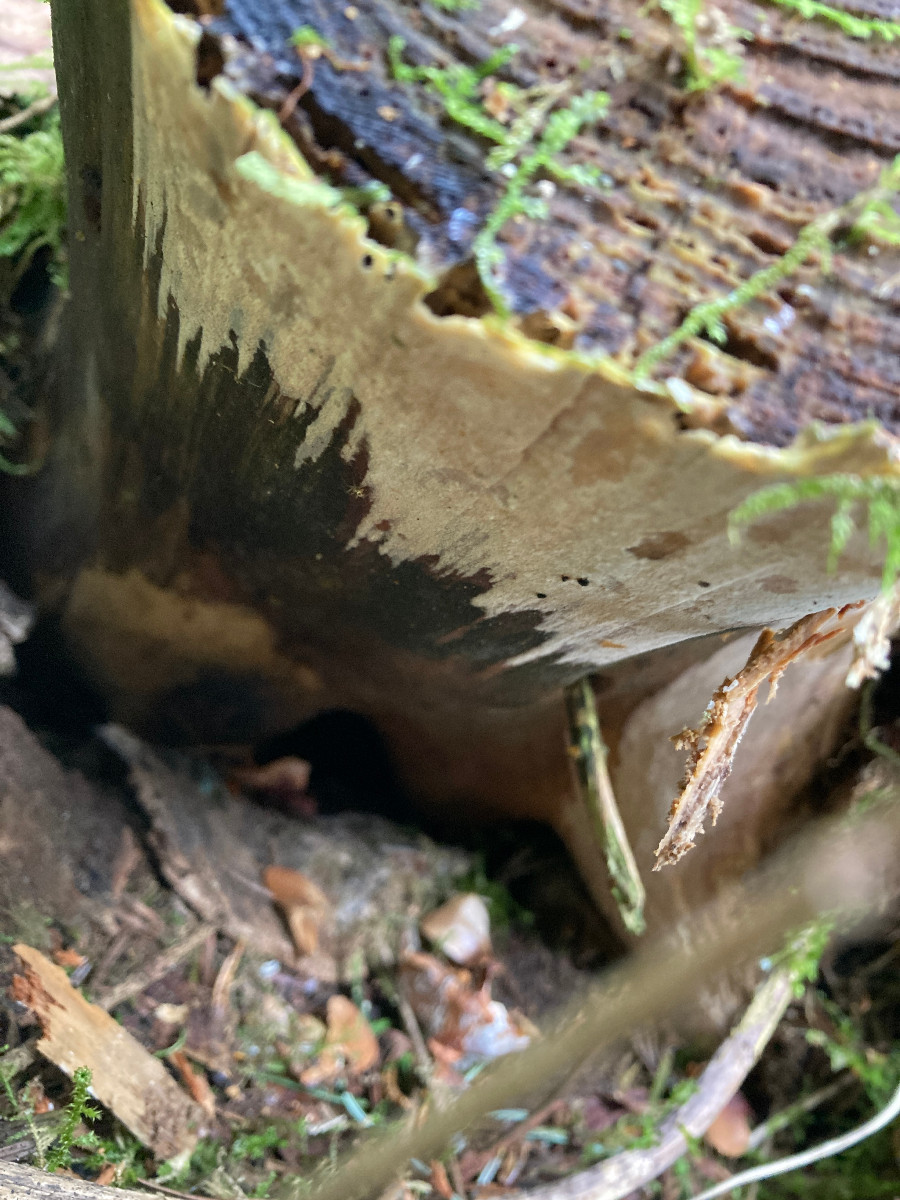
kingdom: Fungi
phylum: Basidiomycota
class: Agaricomycetes
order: Hymenochaetales
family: Rickenellaceae
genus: Resinicium
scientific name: Resinicium bicolor
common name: almindelig vokstand
